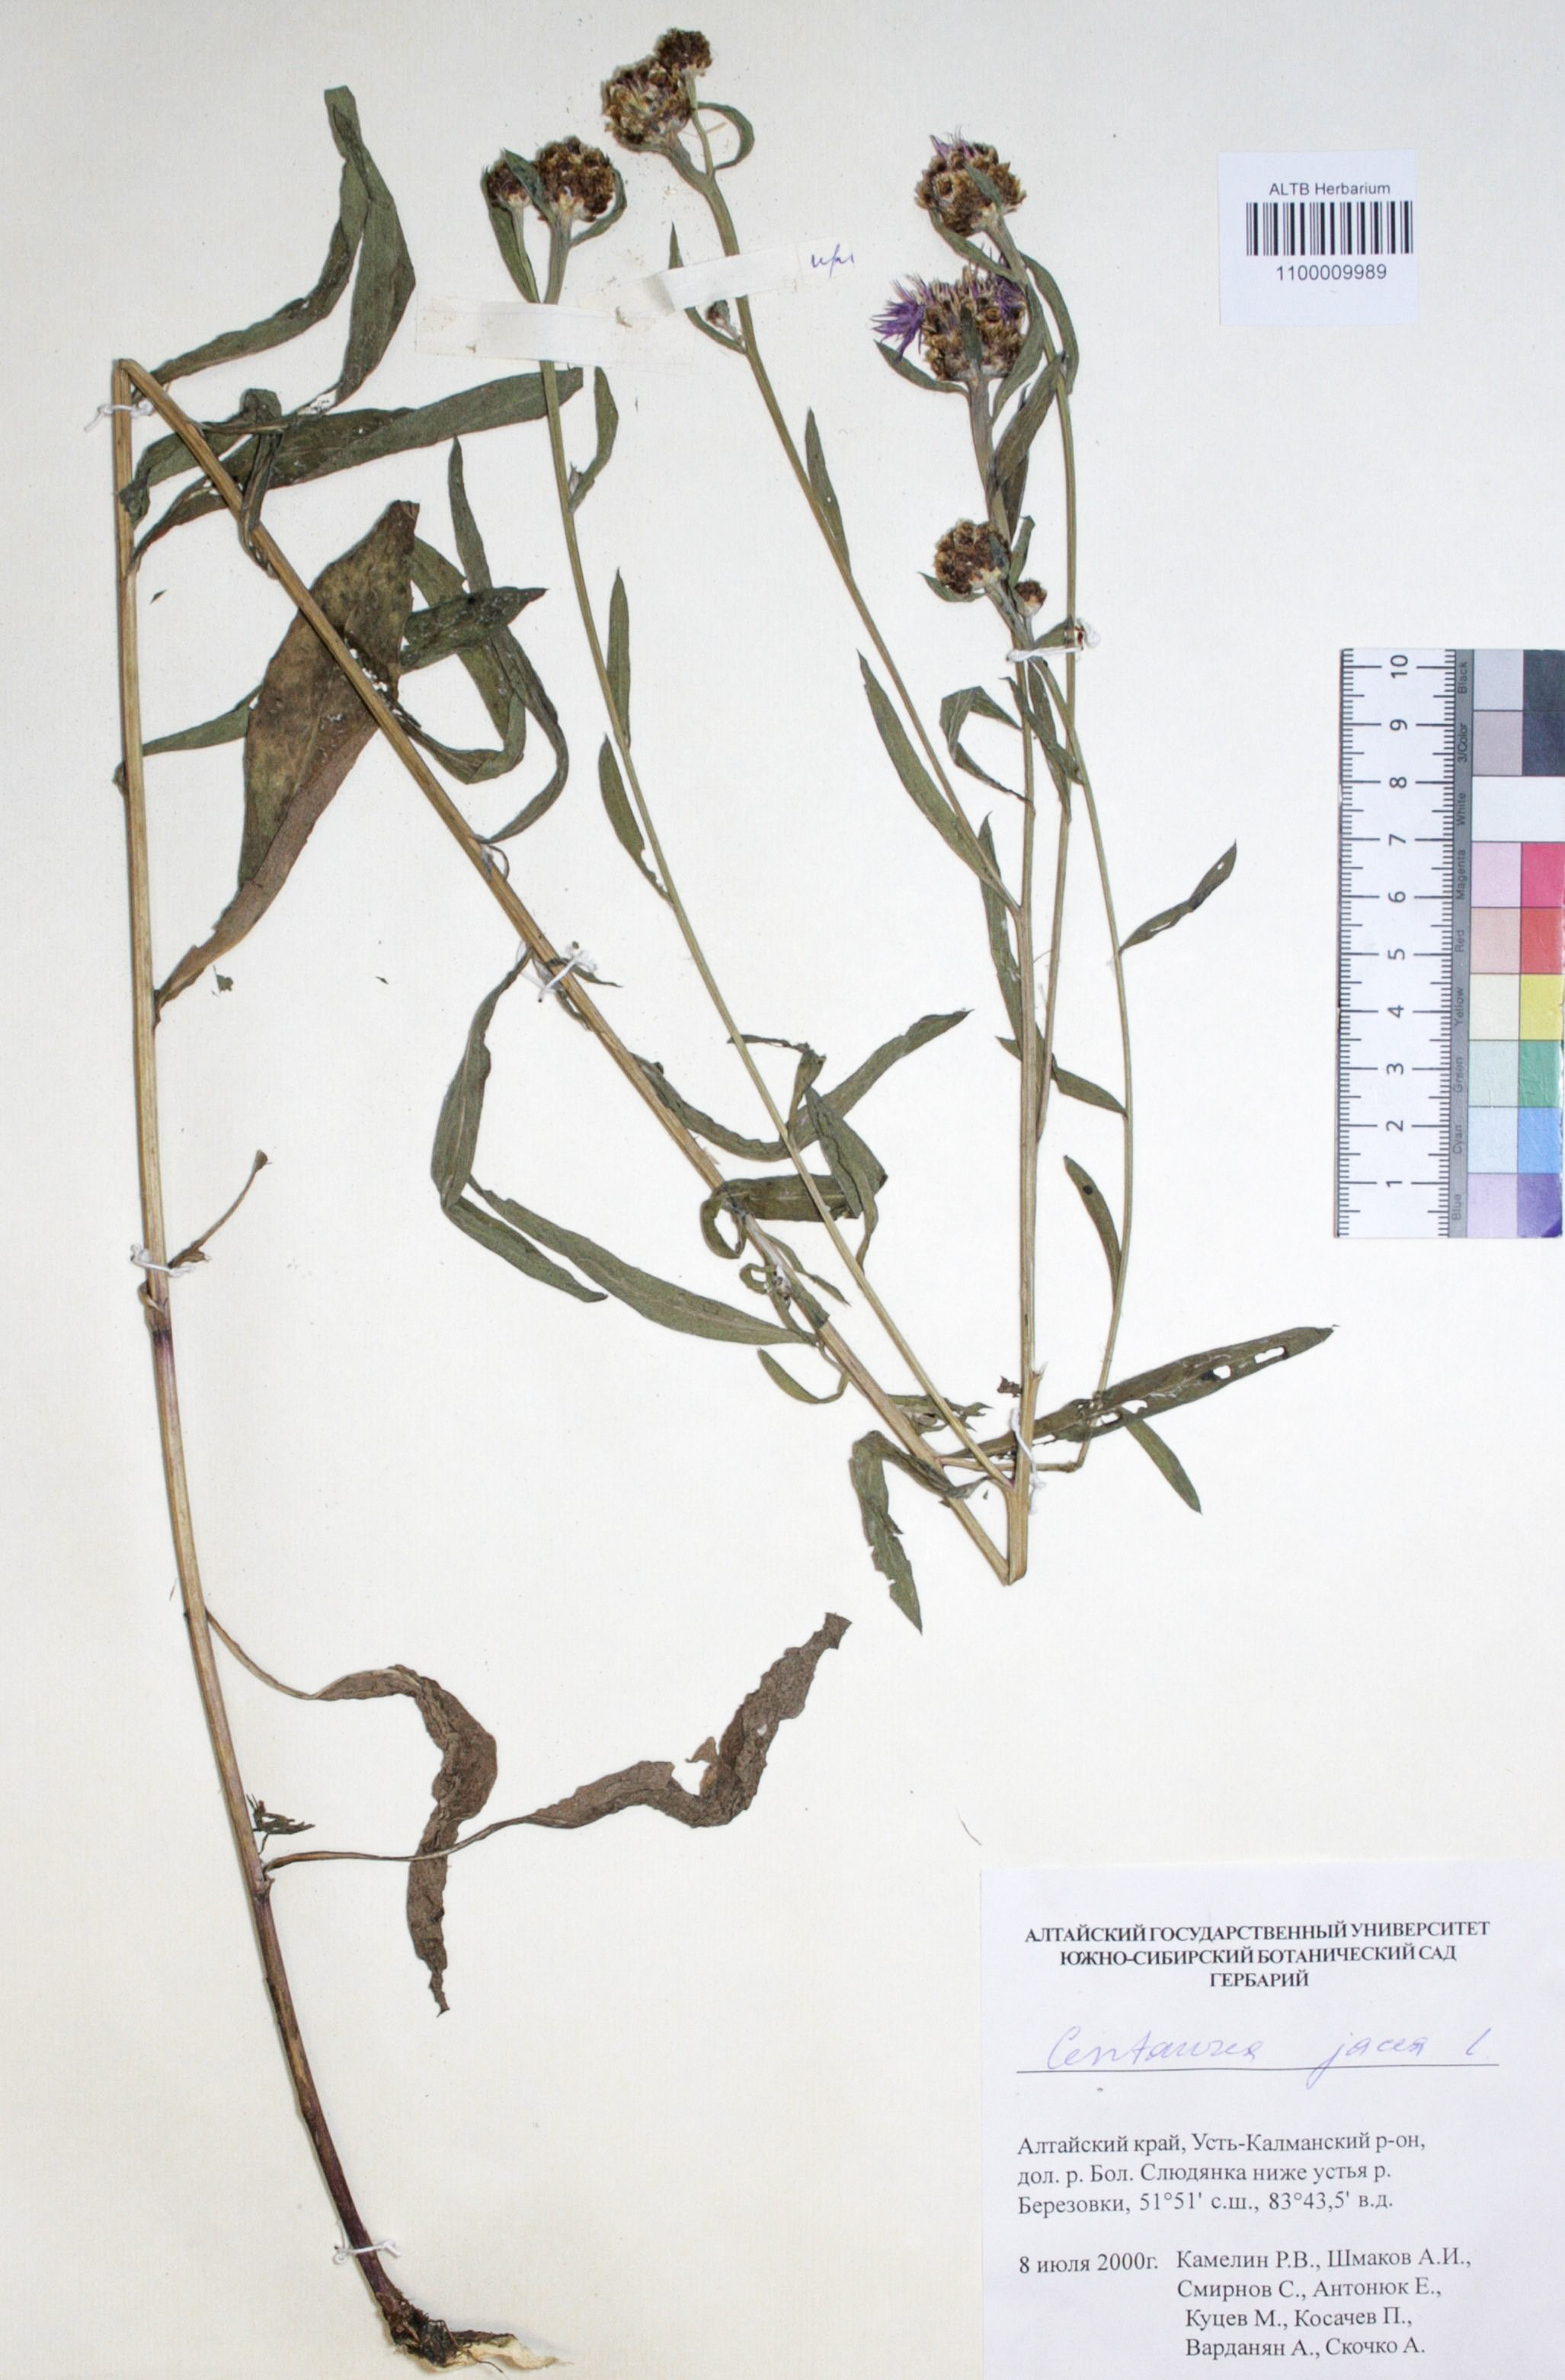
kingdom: Plantae
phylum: Tracheophyta
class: Magnoliopsida
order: Asterales
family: Asteraceae
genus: Centaurea
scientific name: Centaurea jacea
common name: Brown knapweed
